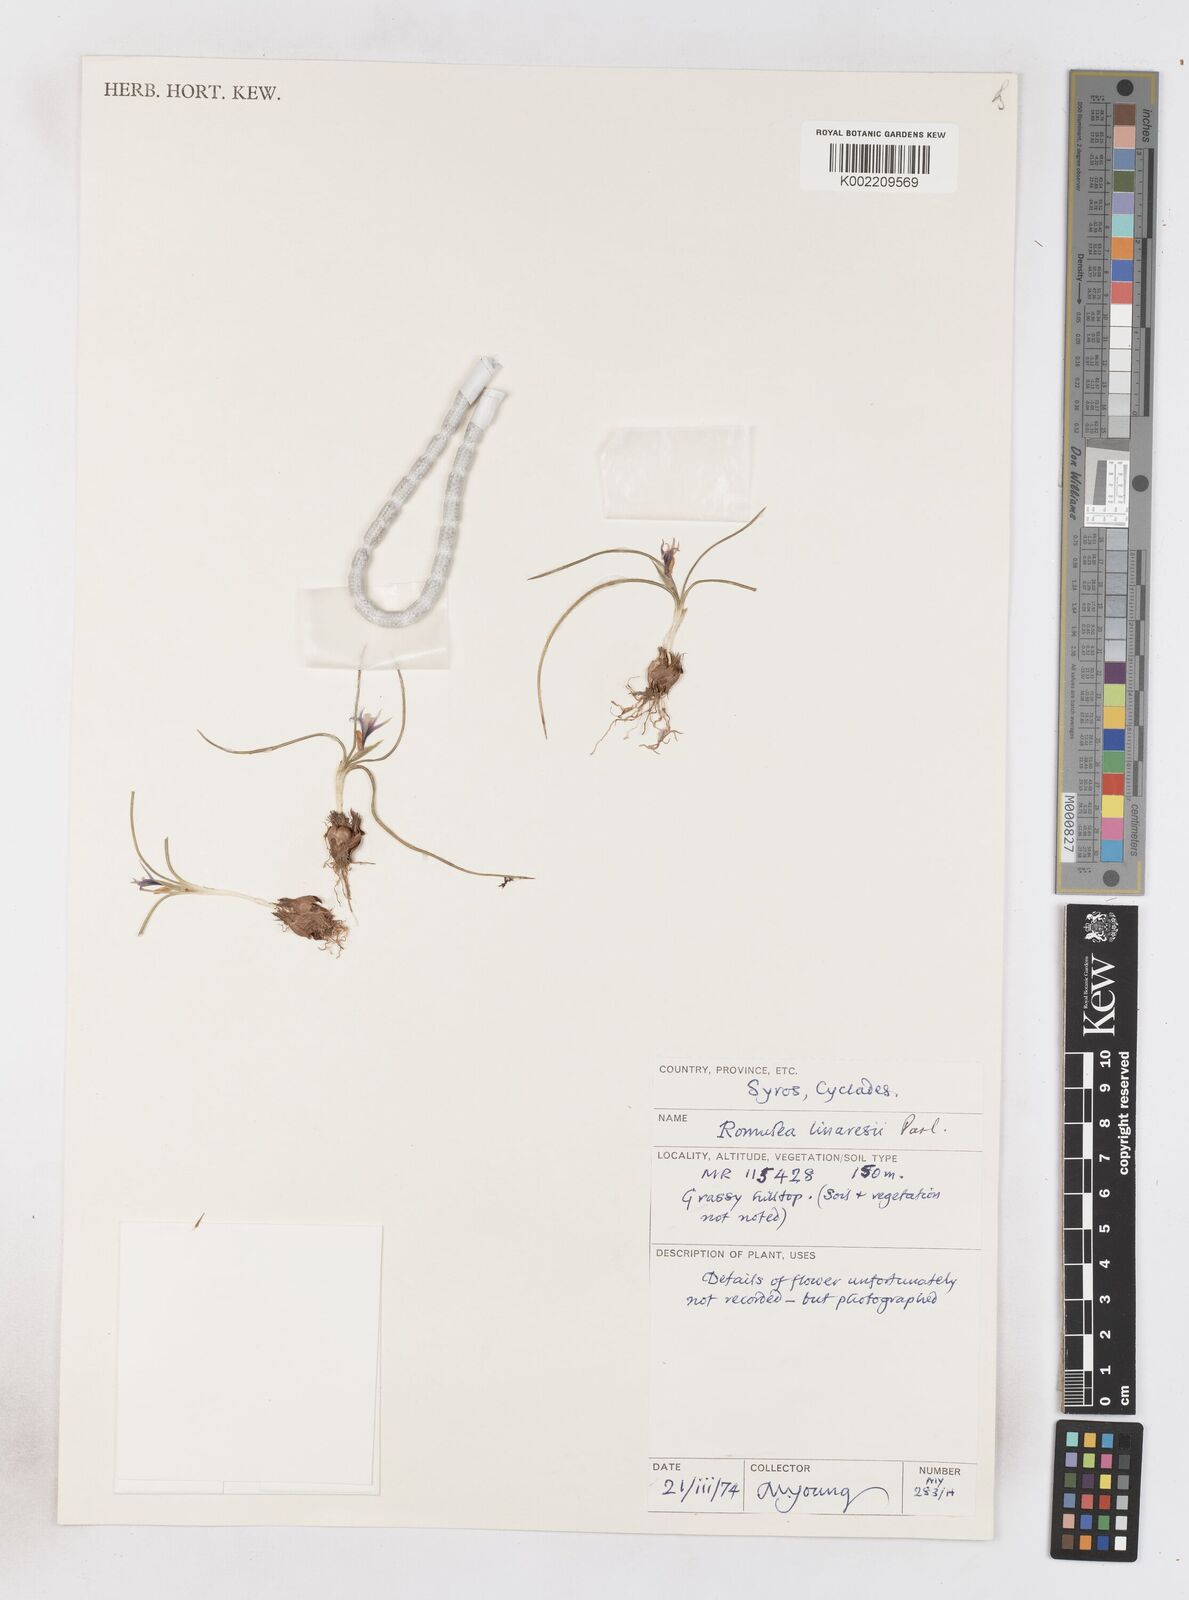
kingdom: Plantae
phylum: Tracheophyta
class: Liliopsida
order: Asparagales
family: Iridaceae
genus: Romulea
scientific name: Romulea linaresii
